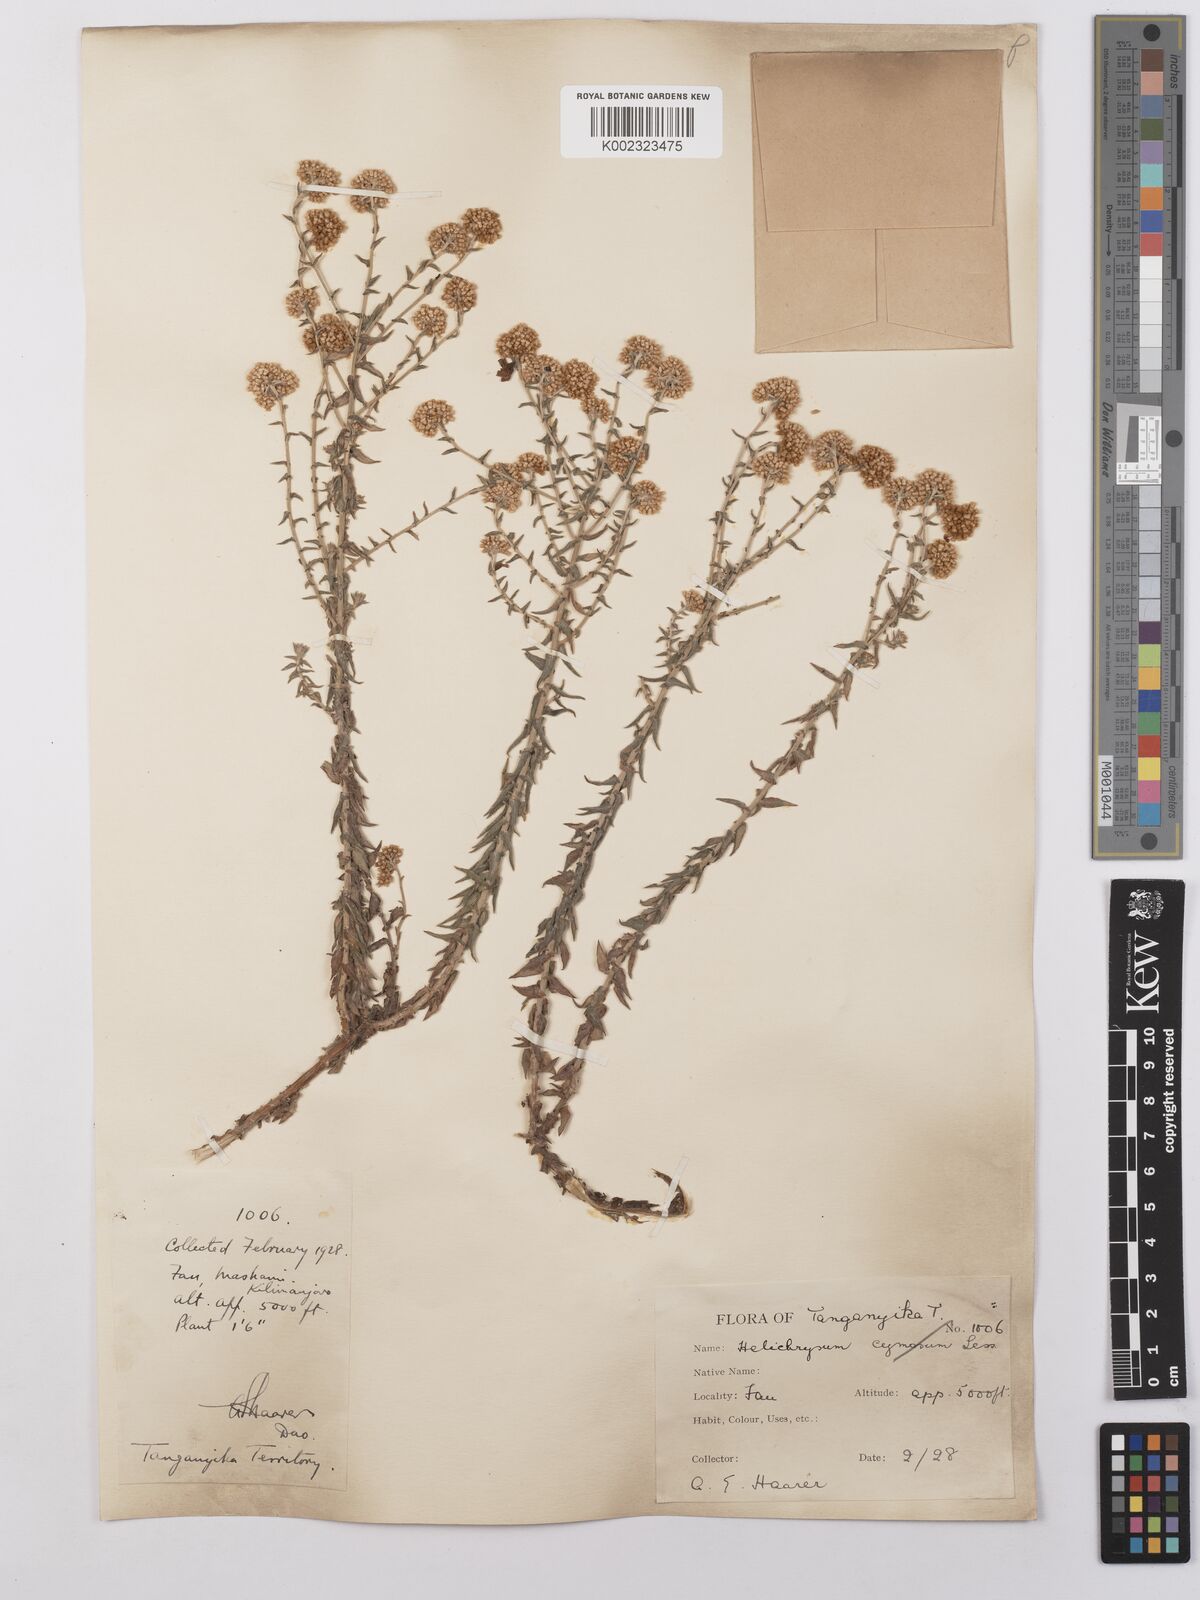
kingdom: Plantae
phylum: Tracheophyta
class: Magnoliopsida
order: Asterales
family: Asteraceae
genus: Helichrysum
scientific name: Helichrysum forskahlii
